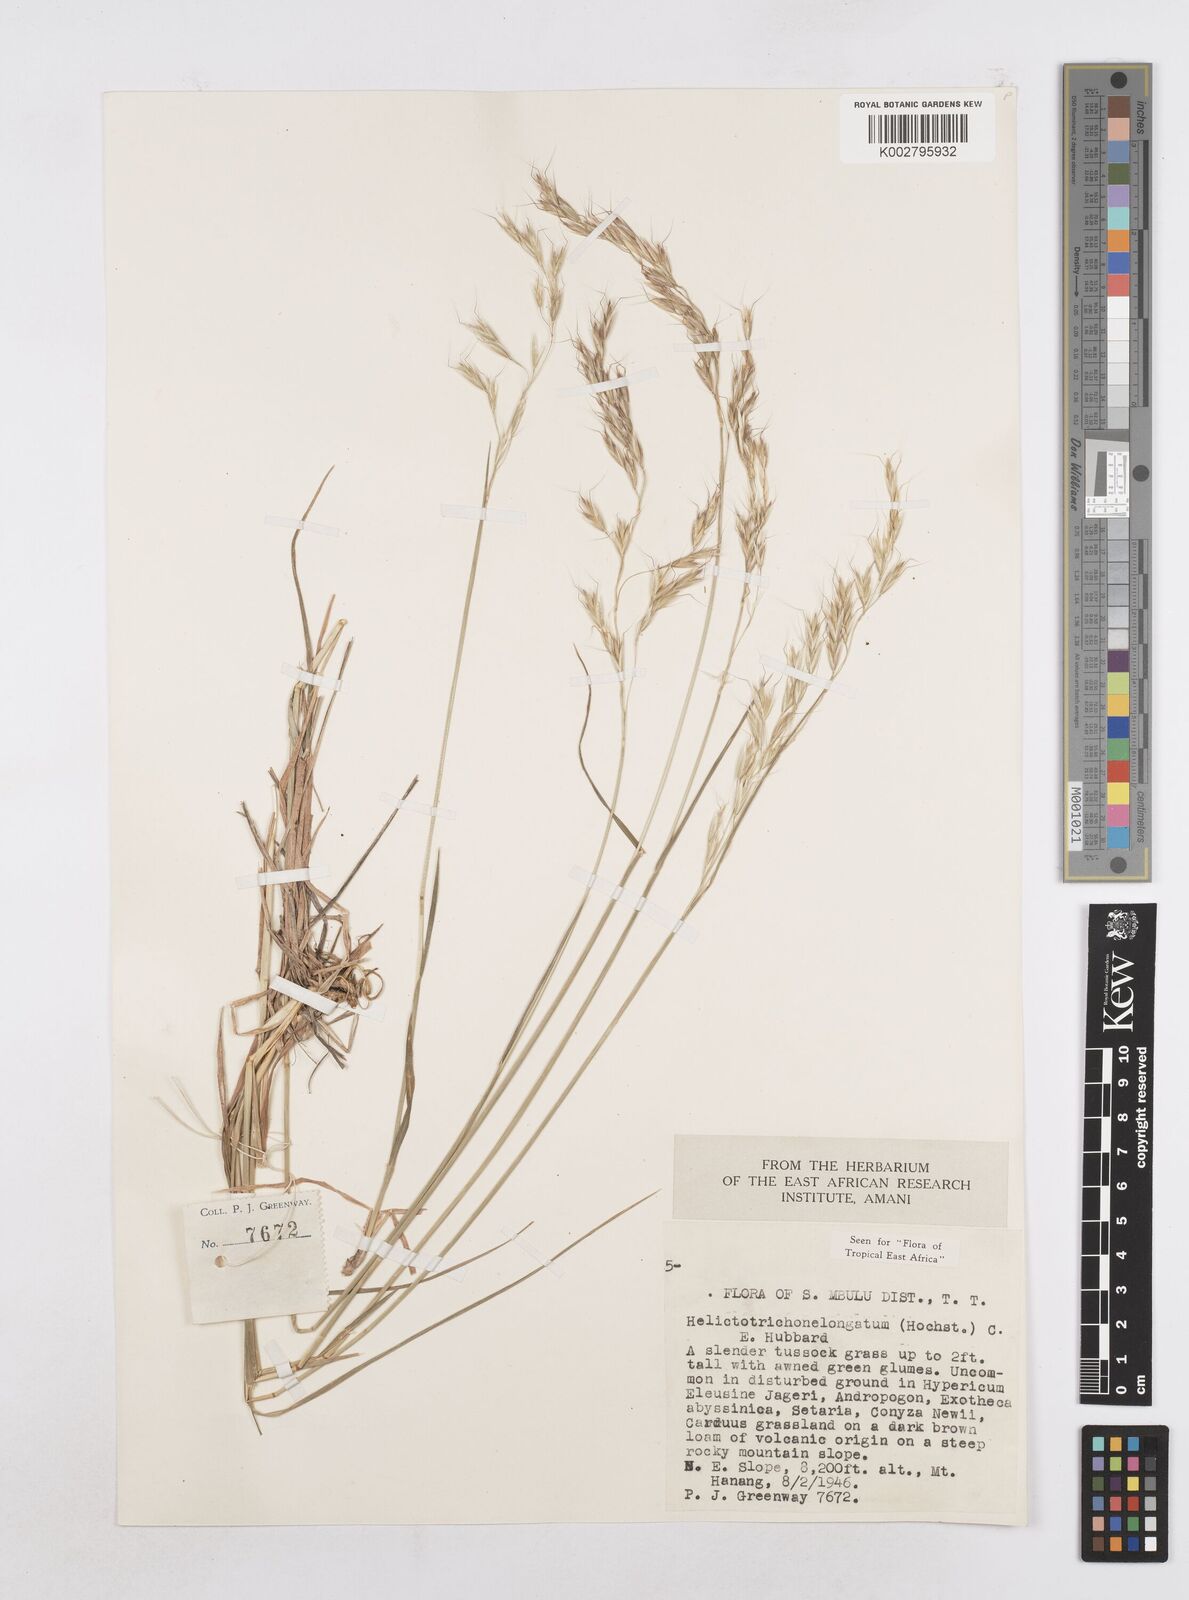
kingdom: Plantae
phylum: Tracheophyta
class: Liliopsida
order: Poales
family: Poaceae
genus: Trisetopsis
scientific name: Trisetopsis elongata
